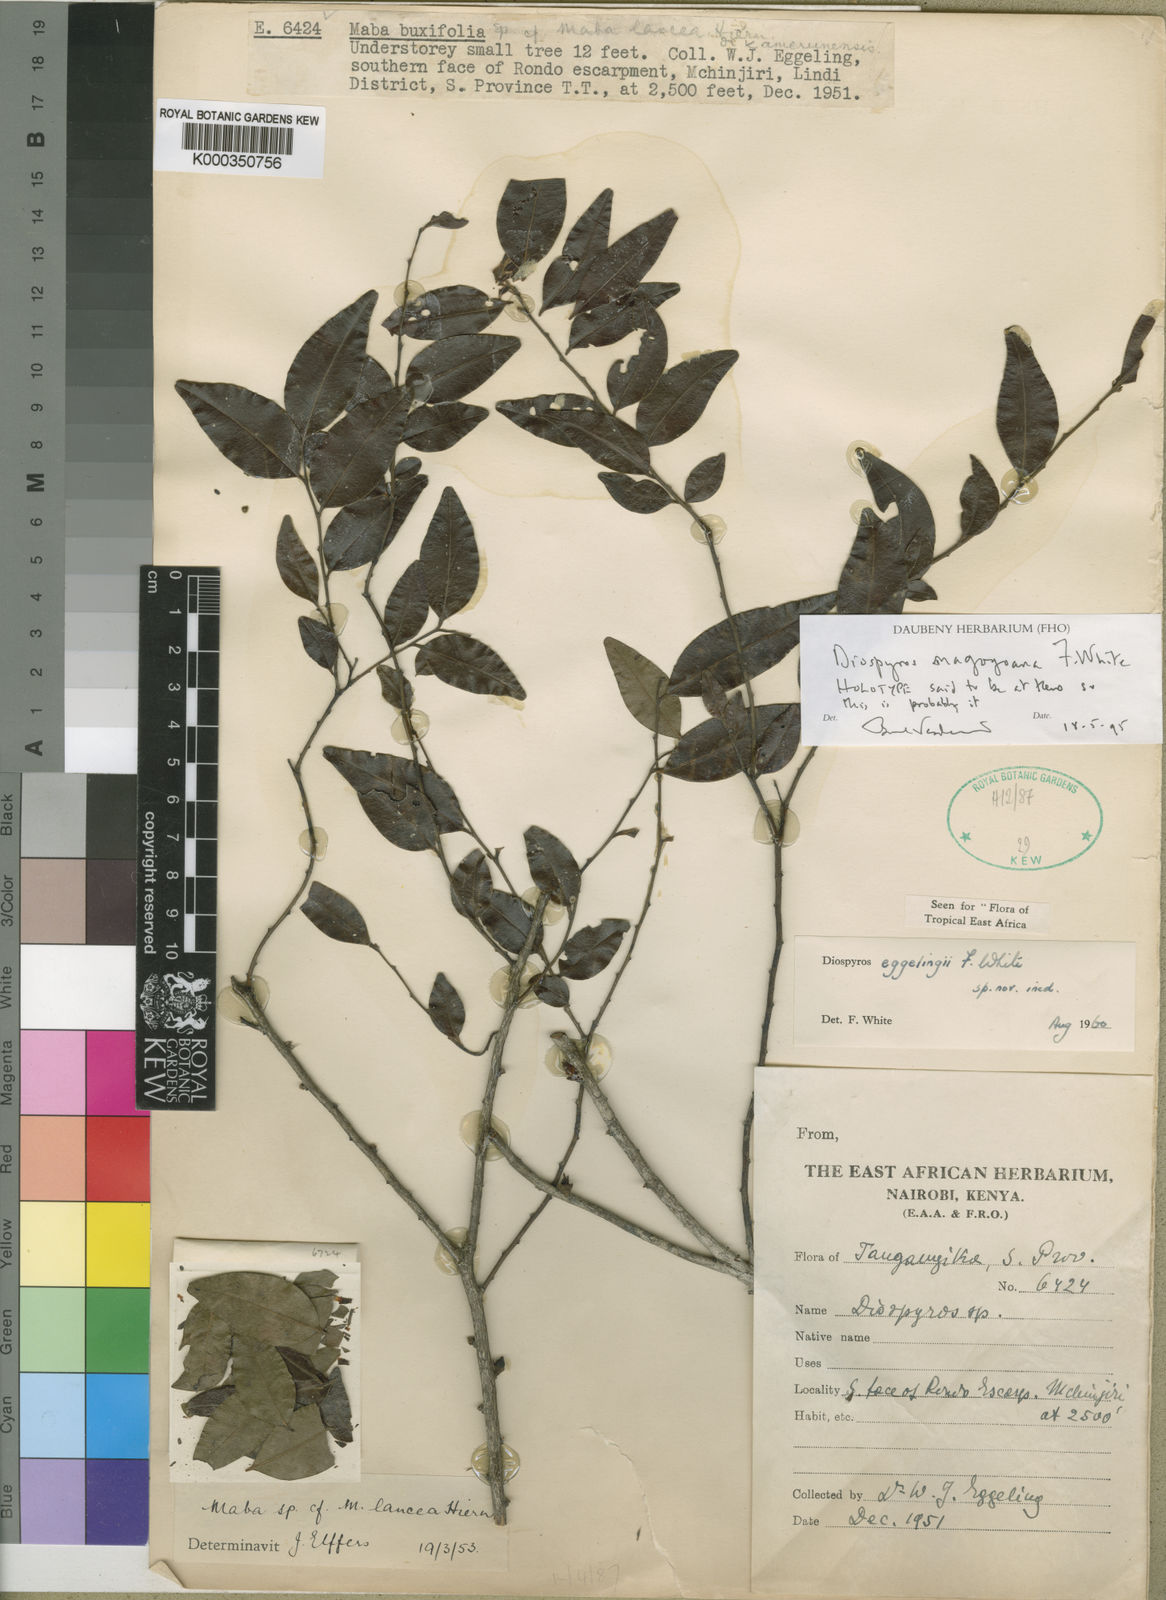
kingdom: Plantae
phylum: Tracheophyta
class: Magnoliopsida
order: Ericales
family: Ebenaceae
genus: Diospyros
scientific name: Diospyros magogoana
